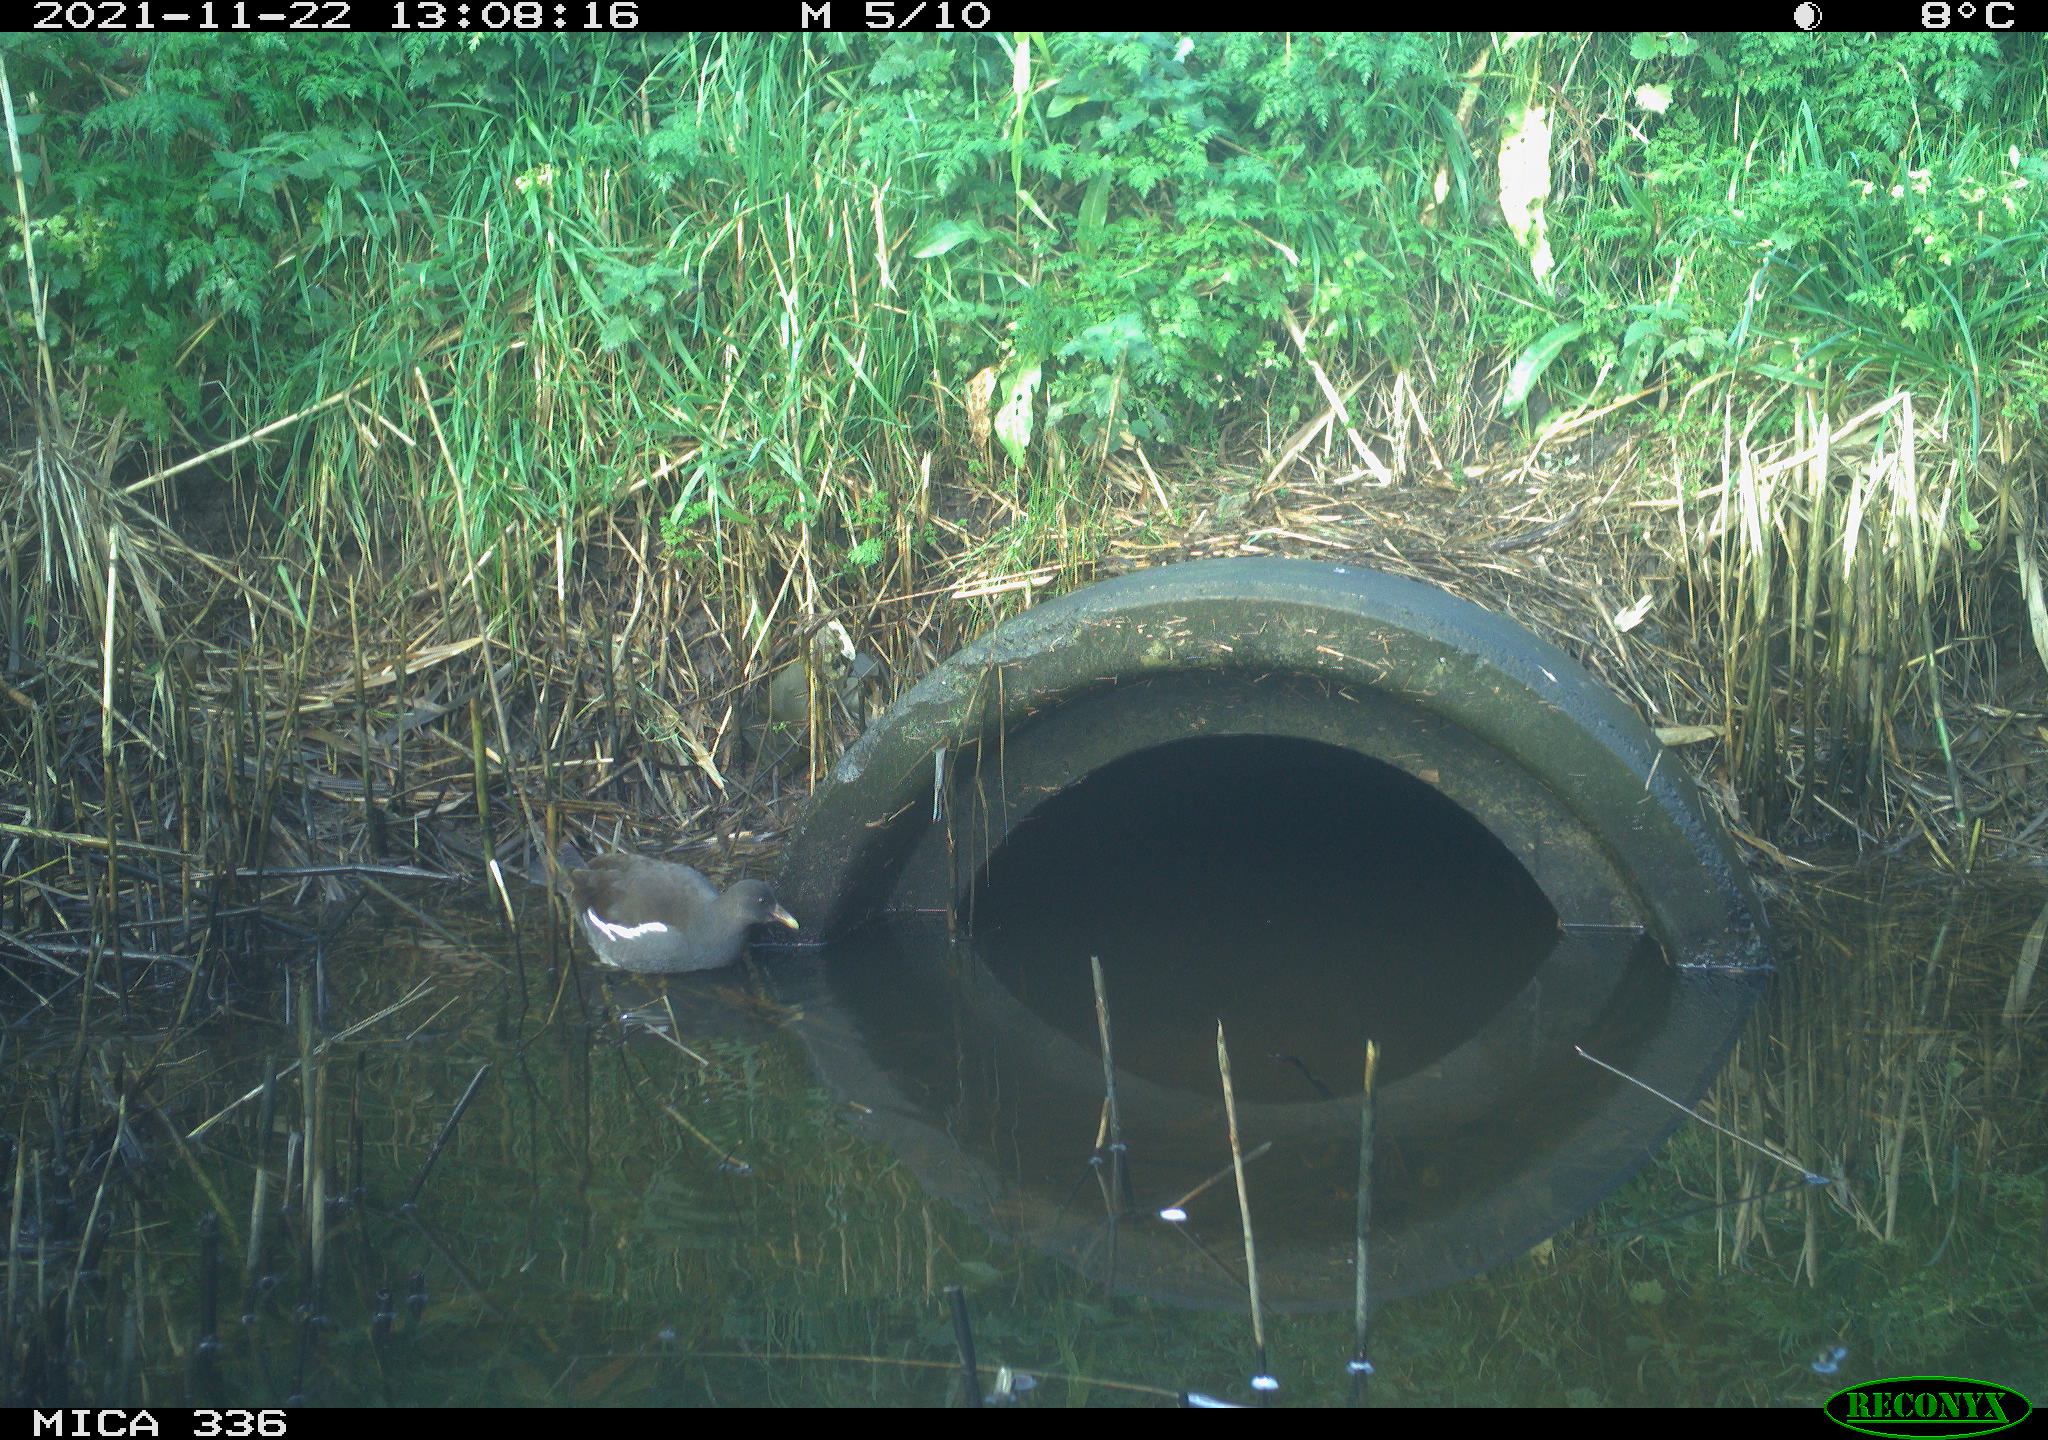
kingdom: Animalia
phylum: Chordata
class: Aves
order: Gruiformes
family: Rallidae
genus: Gallinula
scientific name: Gallinula chloropus
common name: Common moorhen
